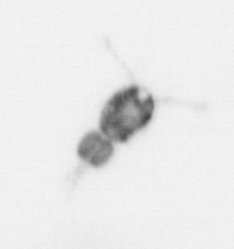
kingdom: Animalia
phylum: Arthropoda
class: Copepoda
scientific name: Copepoda
